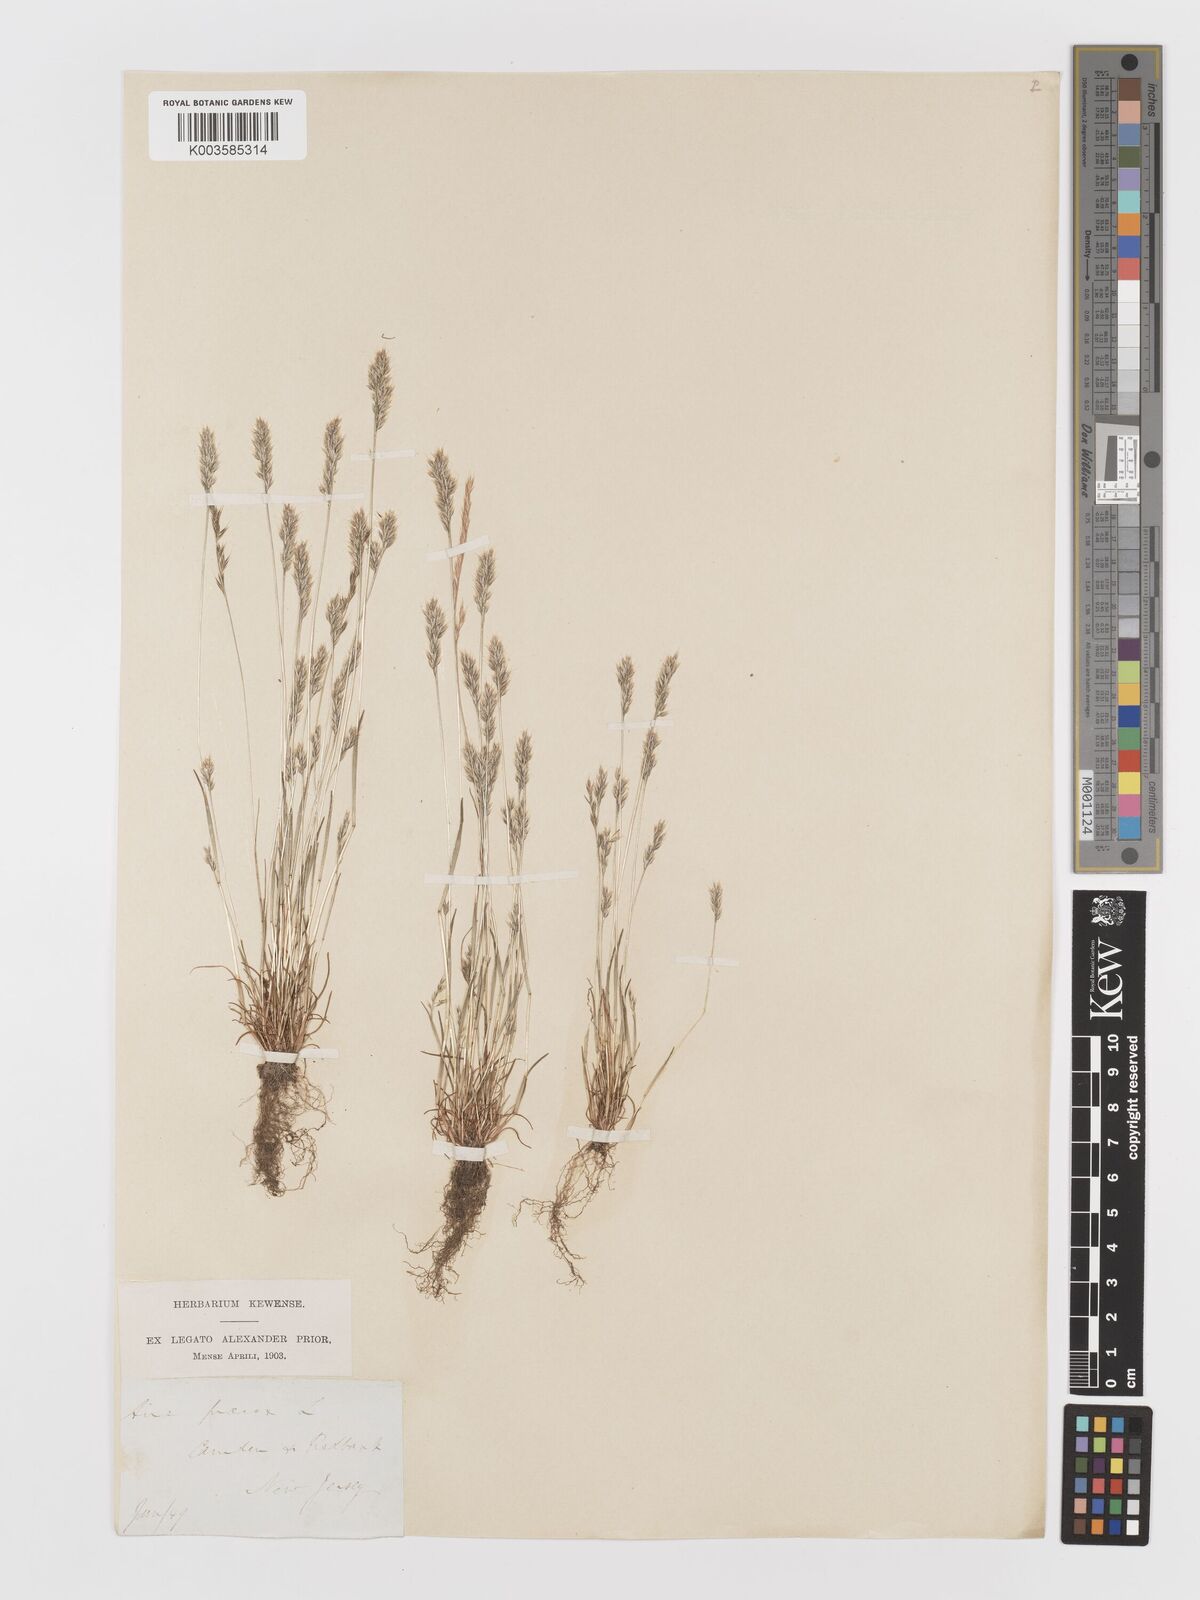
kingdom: Plantae
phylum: Tracheophyta
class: Liliopsida
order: Poales
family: Poaceae
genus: Aira
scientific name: Aira praecox
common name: Early hair-grass
